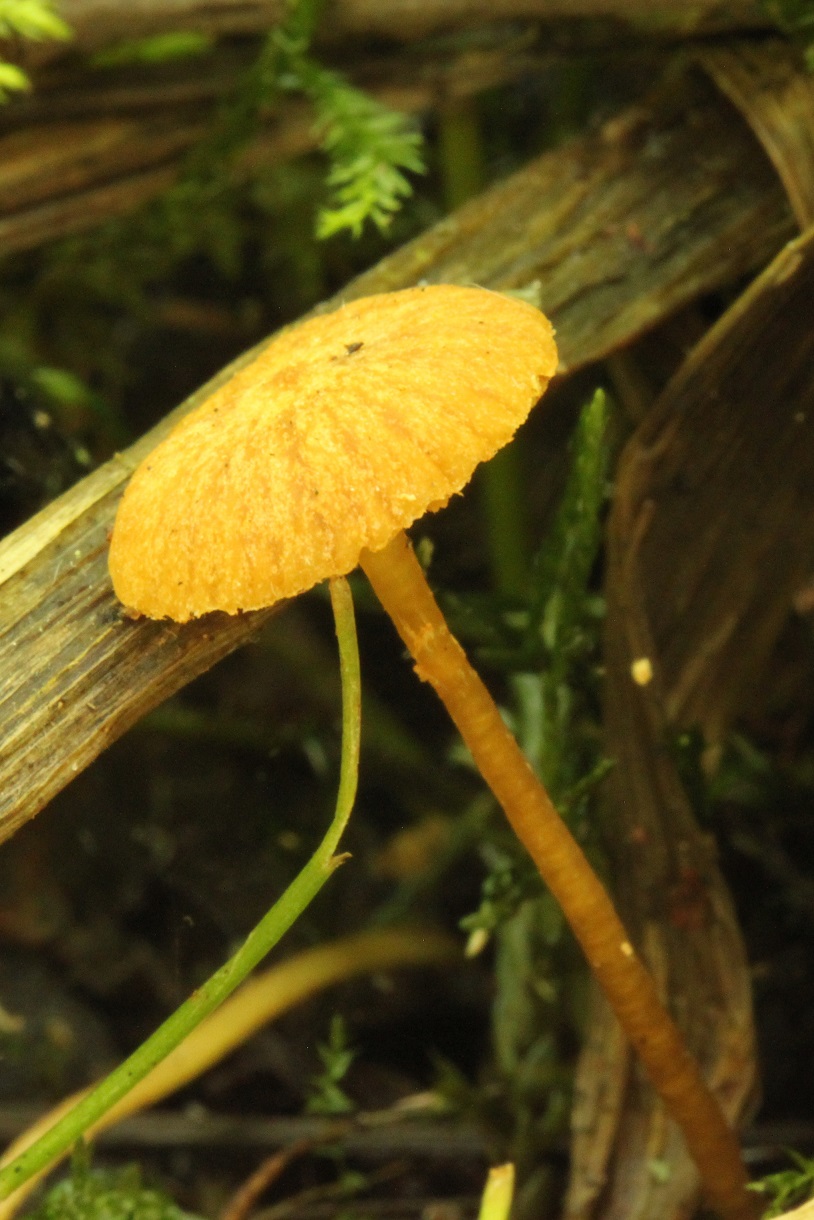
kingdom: Fungi
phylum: Basidiomycota
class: Agaricomycetes
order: Agaricales
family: Hymenogastraceae
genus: Galerina
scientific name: Galerina jaapii
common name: hvidbæltet hjelmhat
